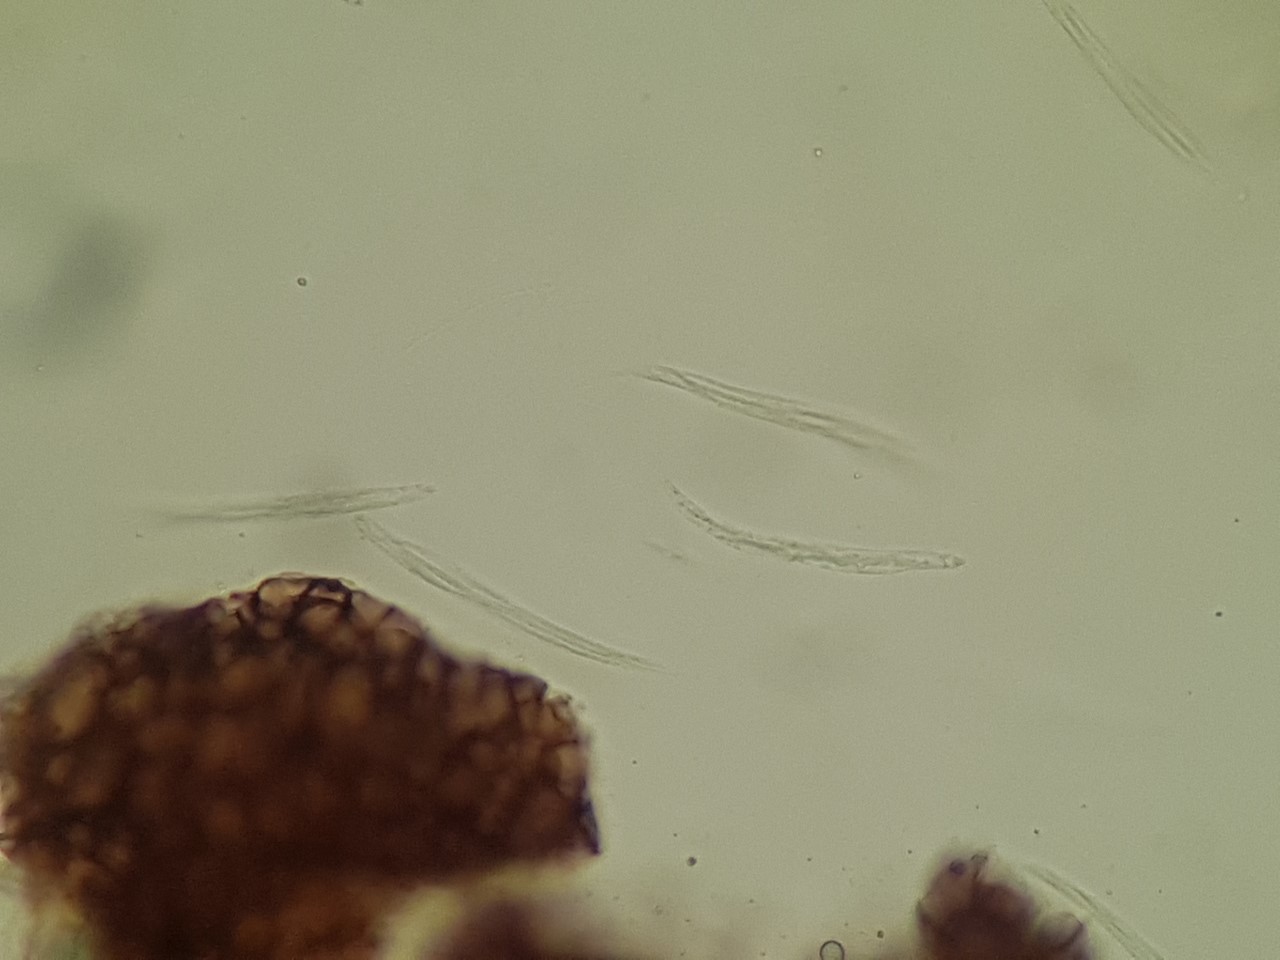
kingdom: Fungi
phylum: Ascomycota
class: Sordariomycetes
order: Diaporthales
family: Gnomoniaceae
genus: Ophiognomonia
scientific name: Ophiognomonia melanostyla
